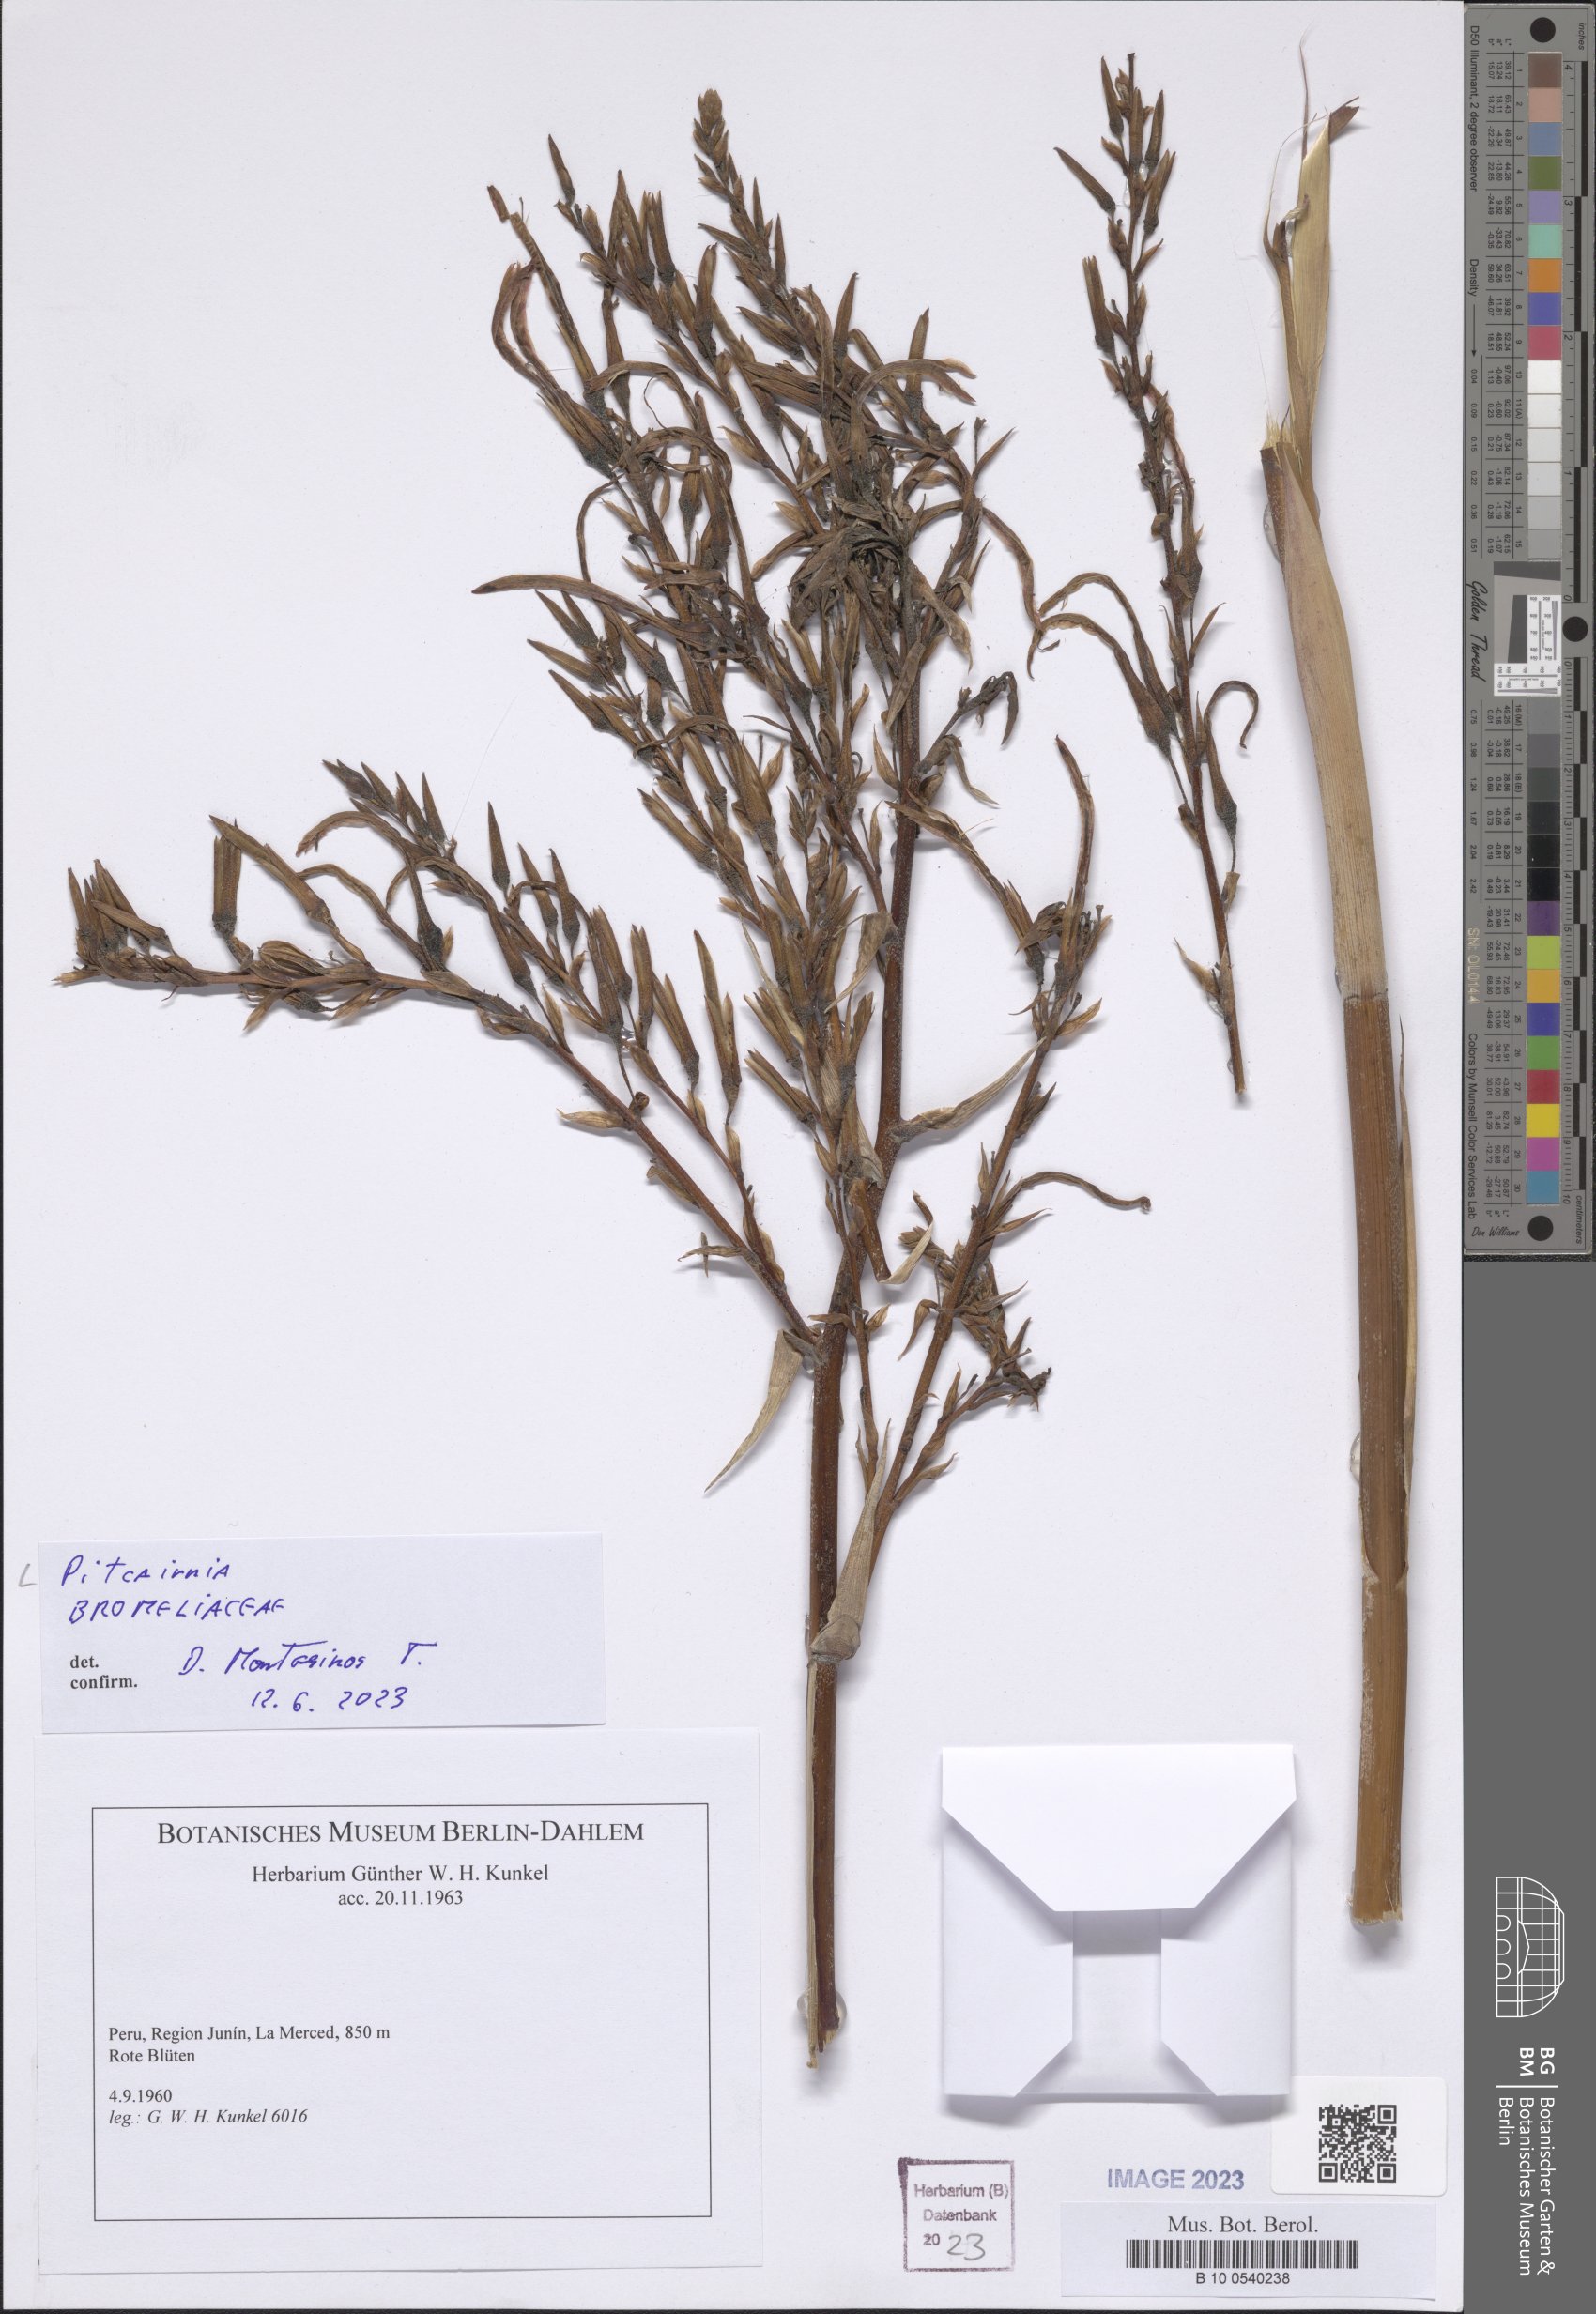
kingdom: Plantae
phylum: Tracheophyta
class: Liliopsida
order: Poales
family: Bromeliaceae
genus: Pitcairnia
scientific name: Pitcairnia
